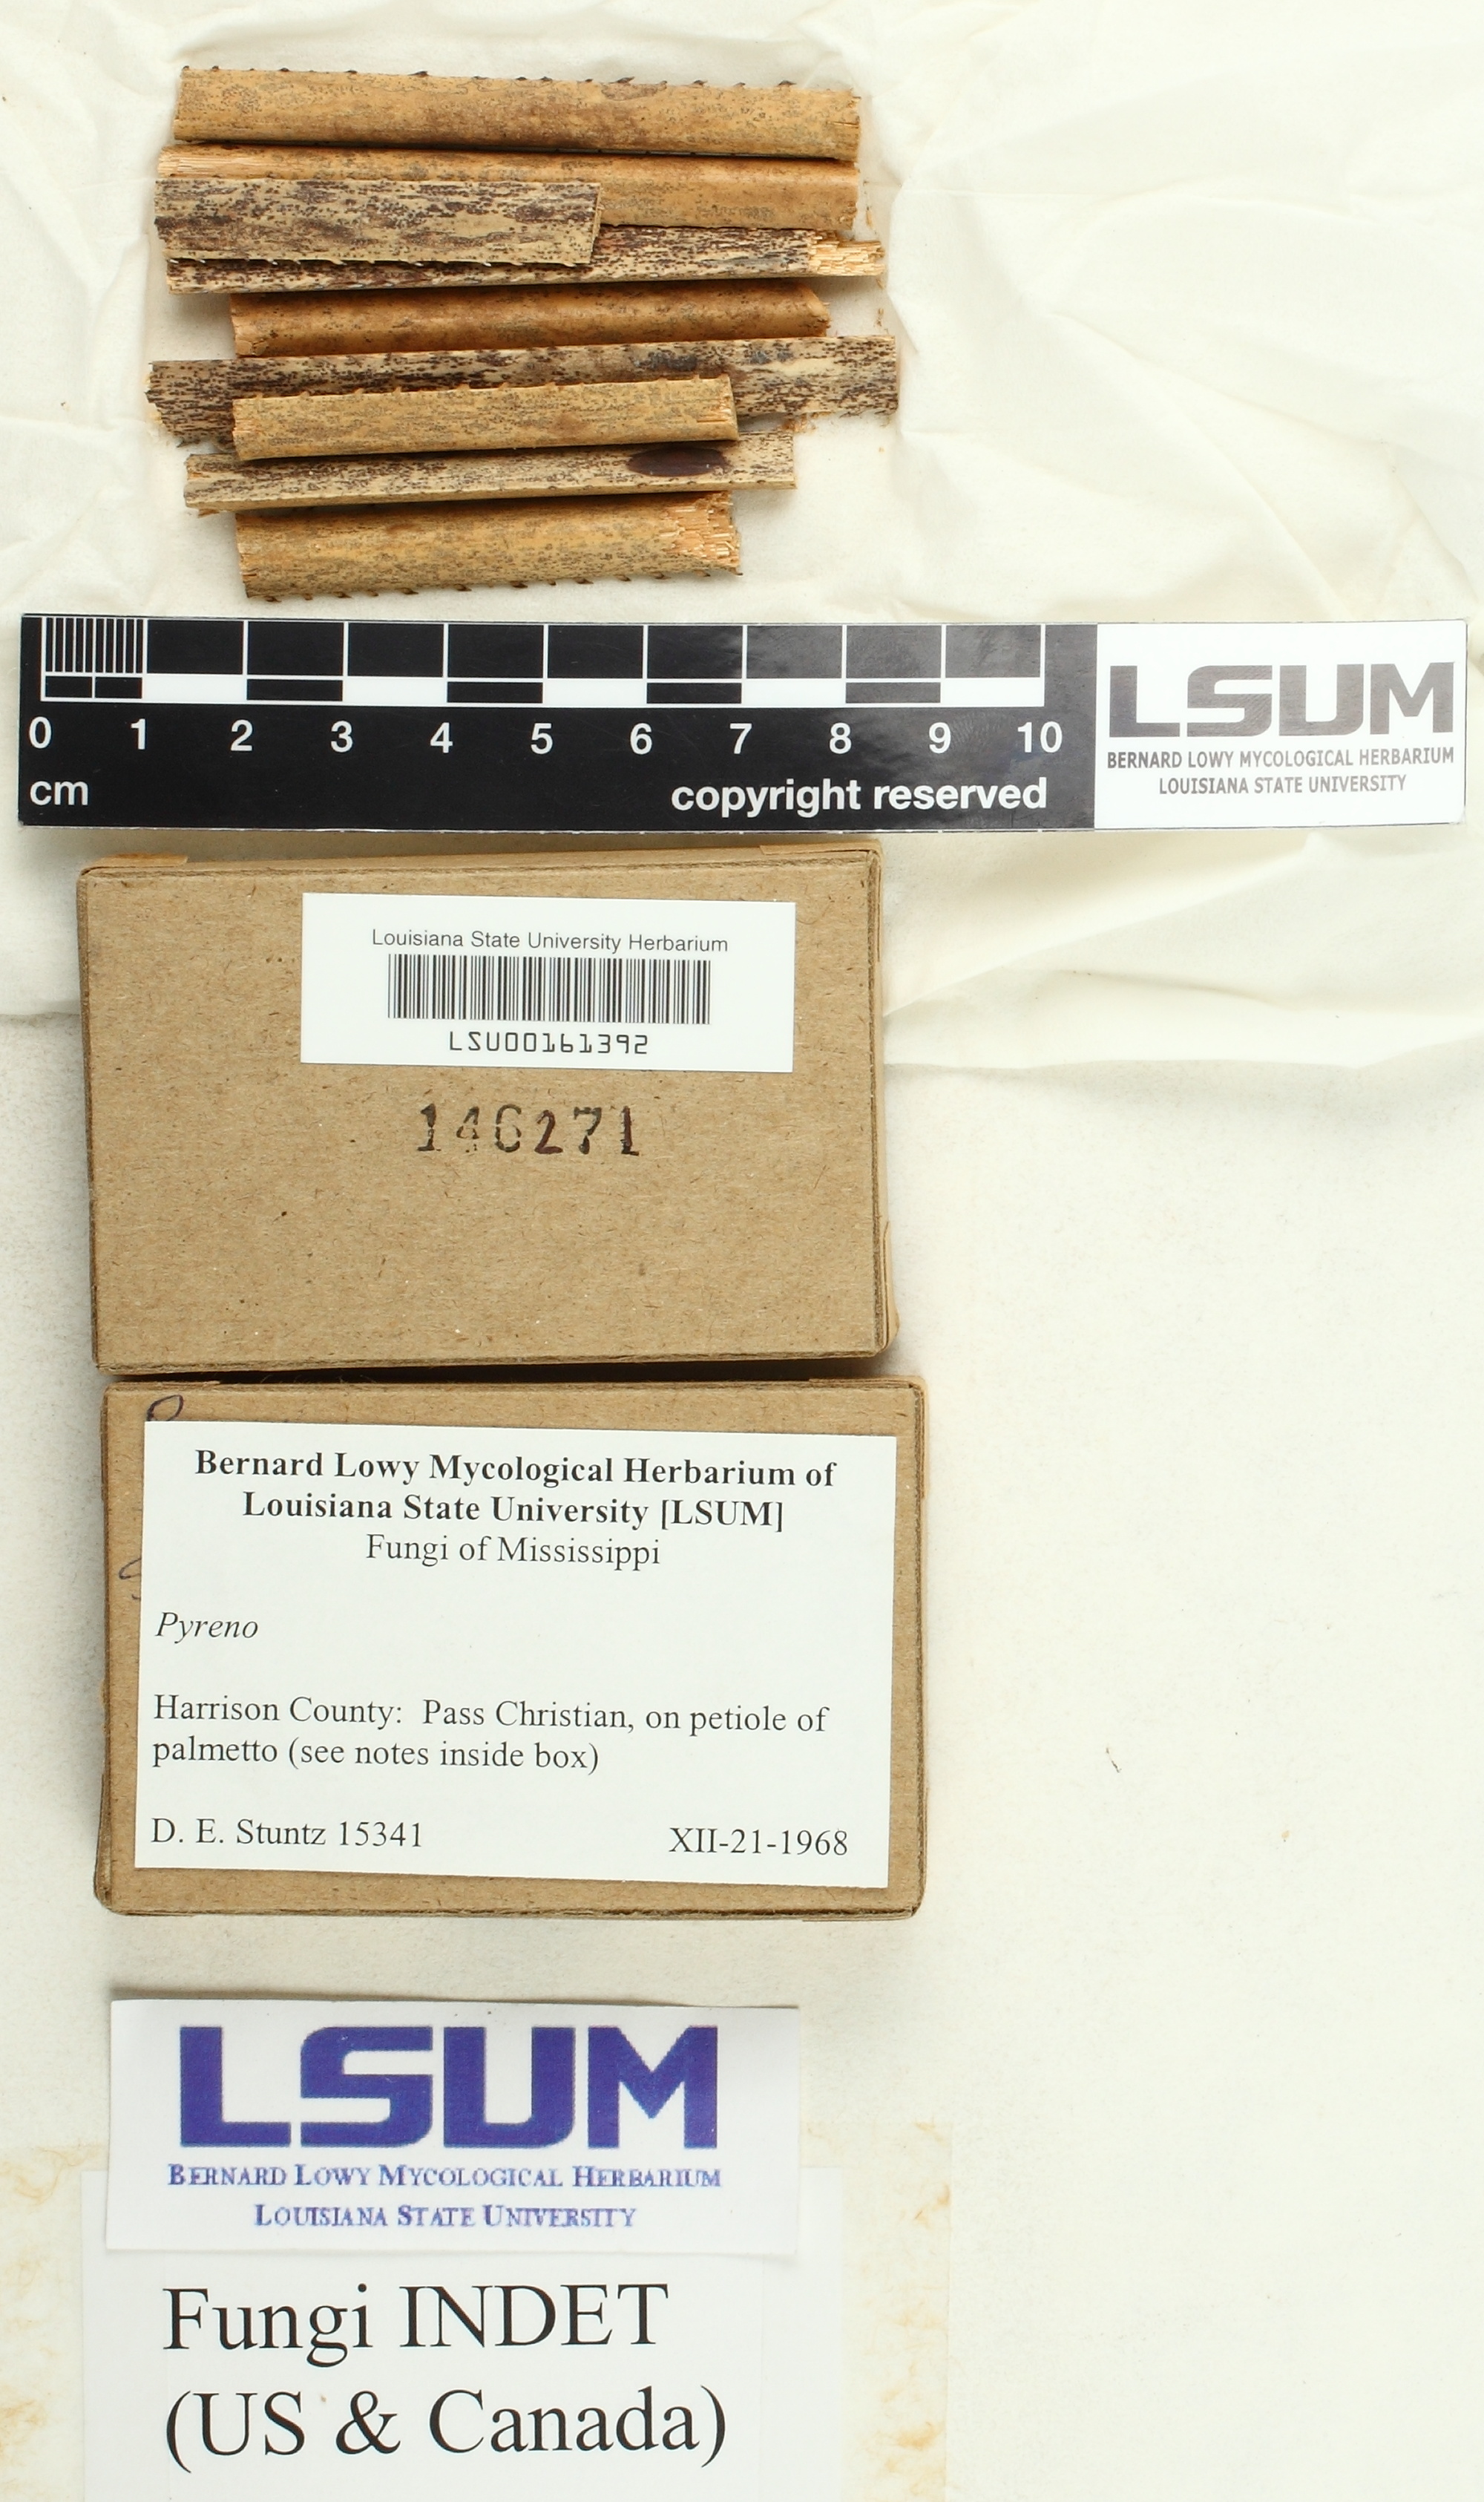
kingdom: Fungi
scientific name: Fungi
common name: Fungi
